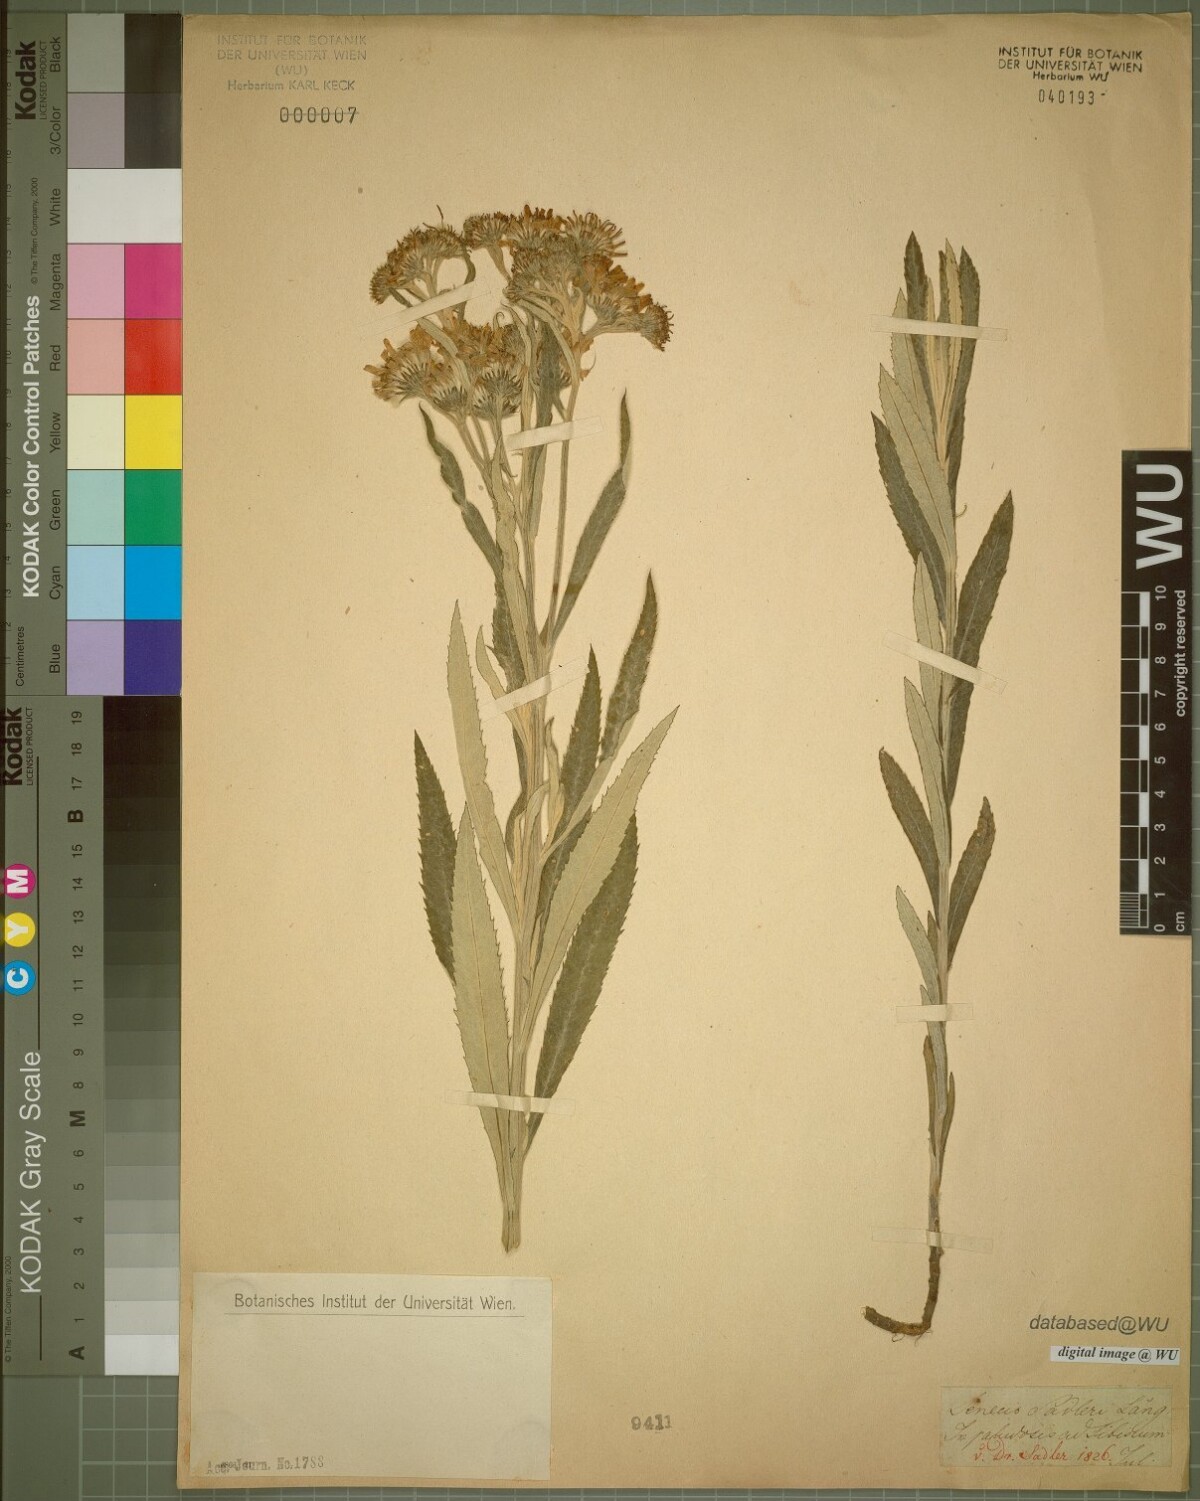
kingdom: Plantae
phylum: Tracheophyta
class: Magnoliopsida
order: Asterales
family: Asteraceae
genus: Jacobaea
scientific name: Jacobaea paludosa
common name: Fen ragwort
